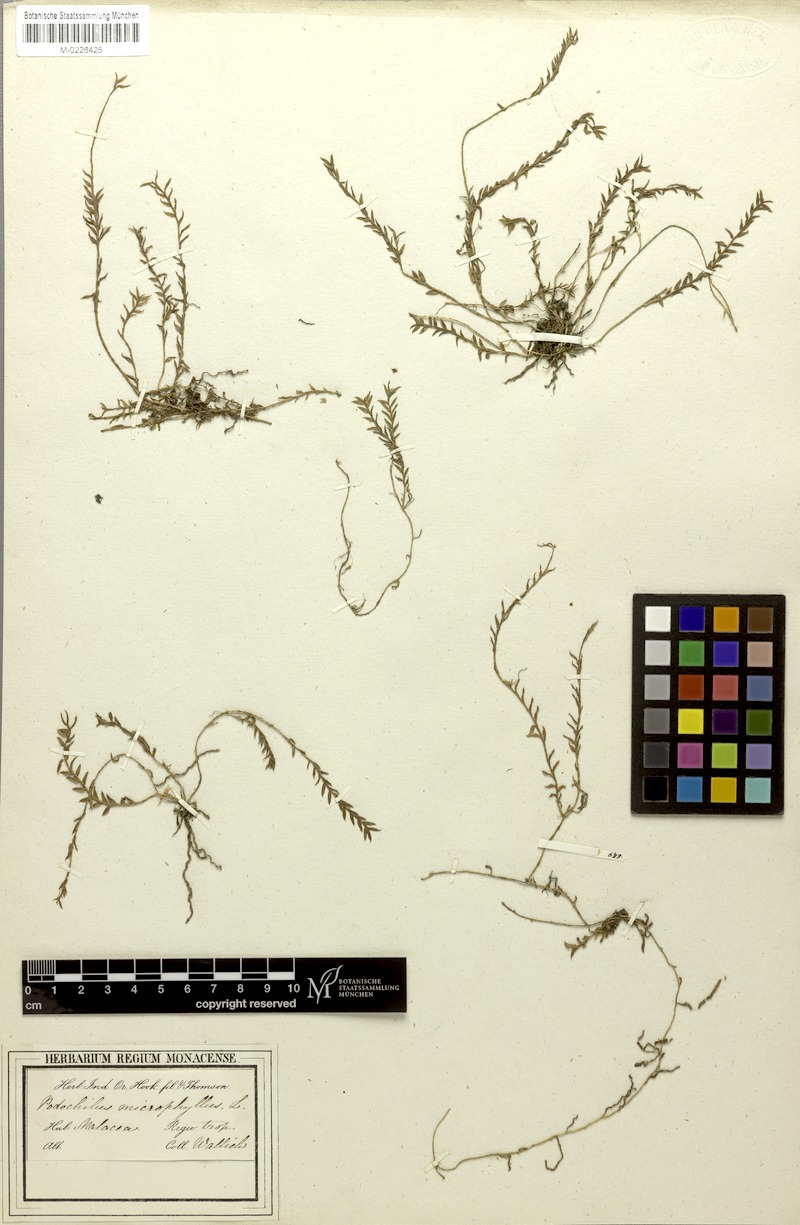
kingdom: Plantae
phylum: Tracheophyta
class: Liliopsida
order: Asparagales
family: Orchidaceae
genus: Podochilus
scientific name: Podochilus microphyllus
